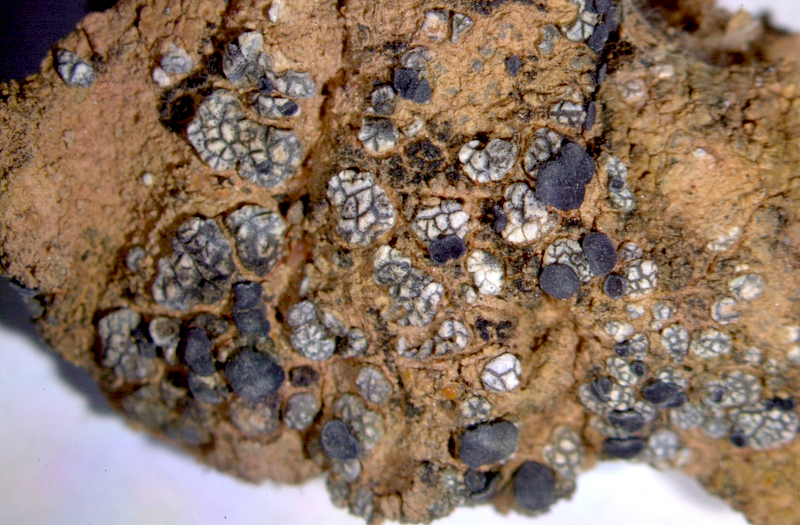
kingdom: Fungi
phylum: Ascomycota
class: Lecanoromycetes
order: Lecanorales
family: Ramalinaceae
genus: Bibbya
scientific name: Bibbya lutosa
